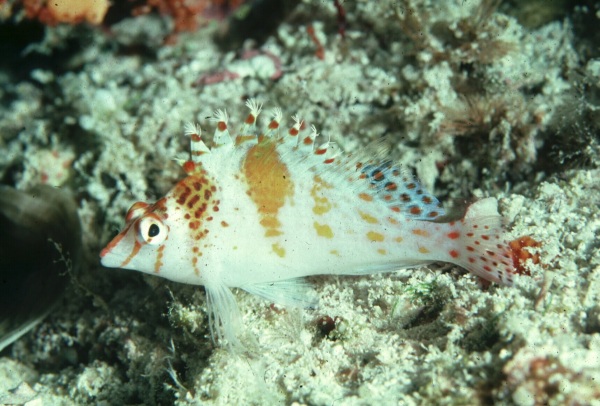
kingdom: Animalia
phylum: Chordata
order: Perciformes
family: Cirrhitidae
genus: Cirrhitichthys
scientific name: Cirrhitichthys falco
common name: Coral hawkfish
